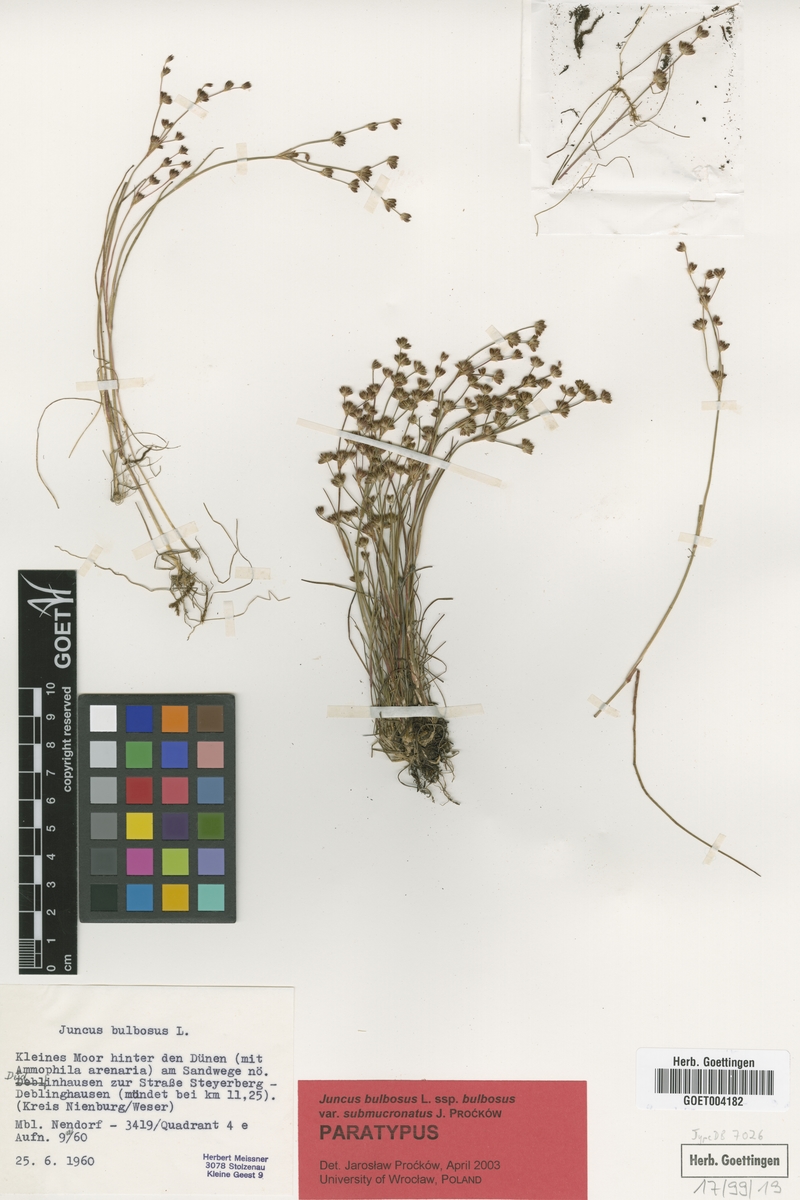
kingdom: Plantae
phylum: Tracheophyta
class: Liliopsida
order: Poales
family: Juncaceae
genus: Juncus
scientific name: Juncus bulbosus
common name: Bulbous rush
